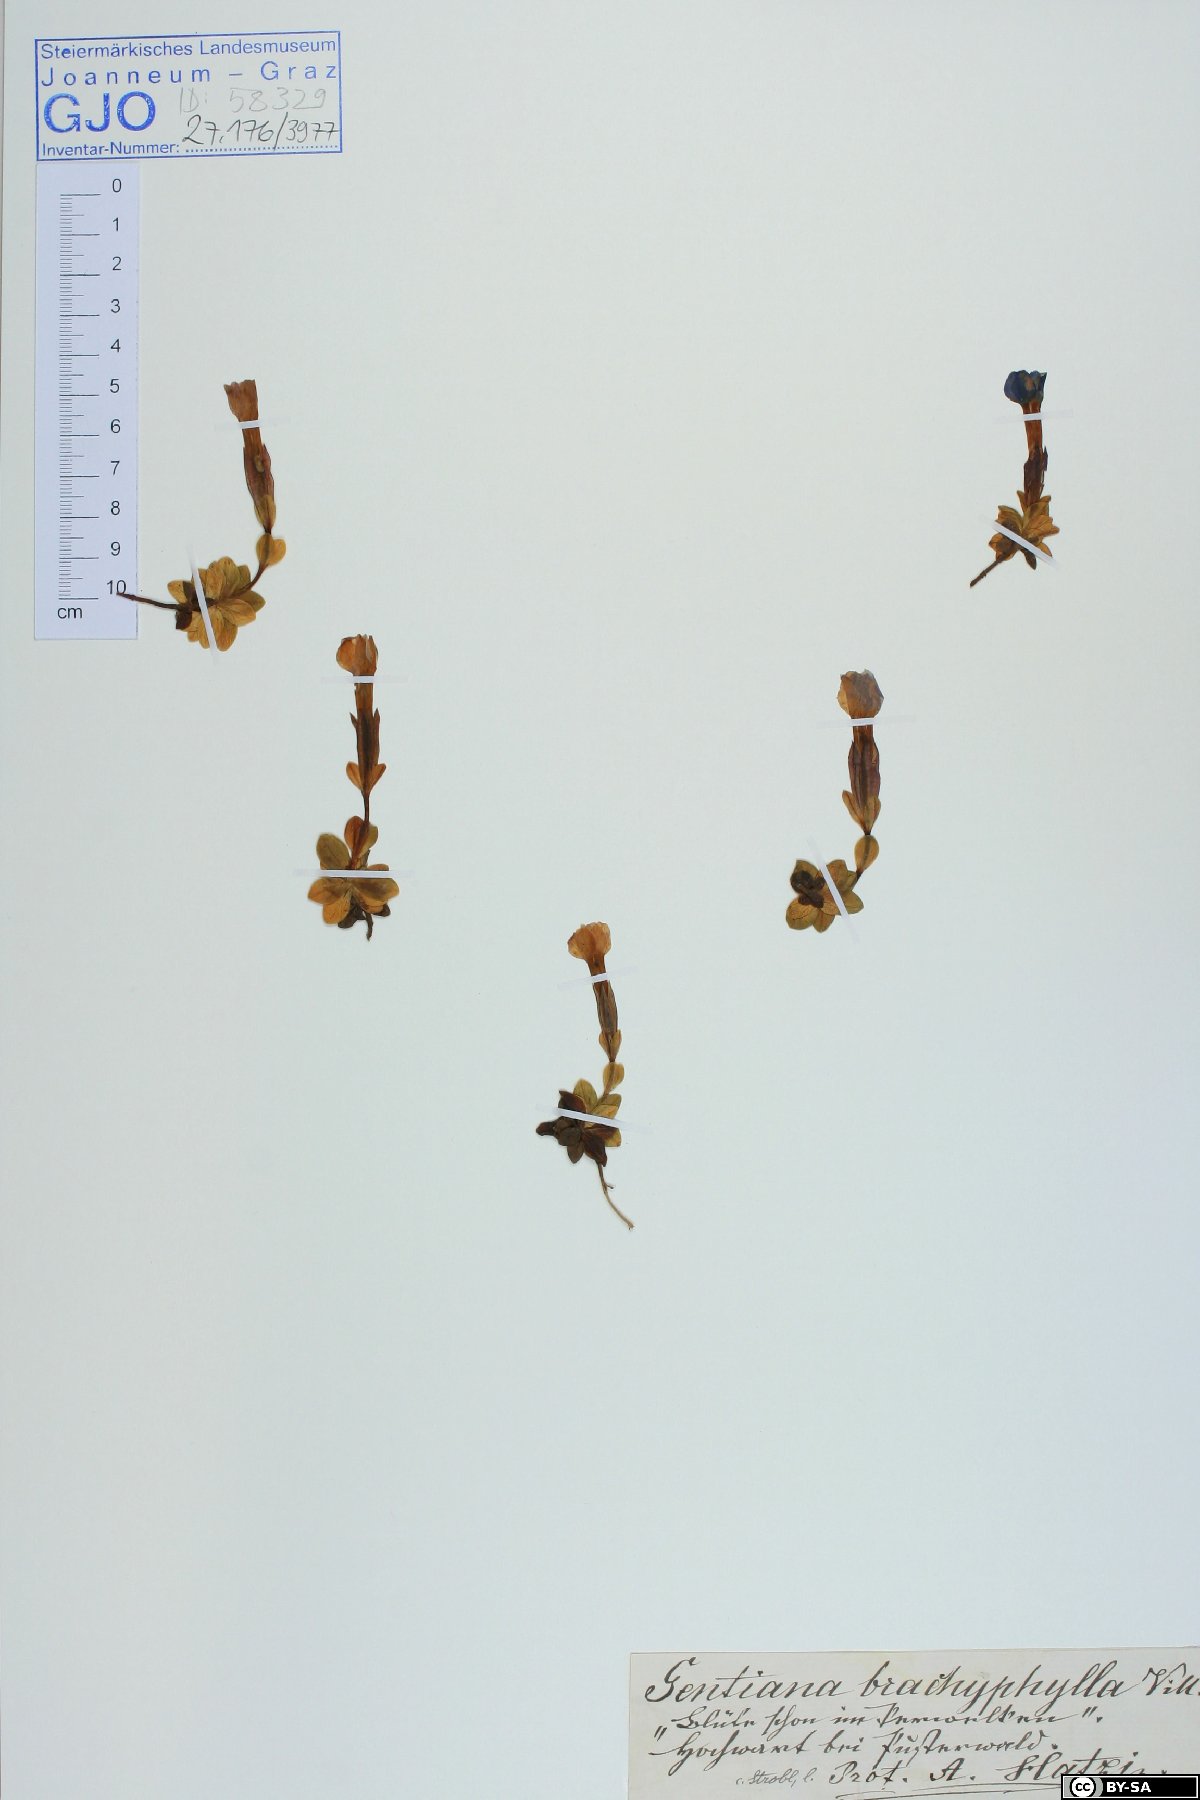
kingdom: Plantae
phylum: Tracheophyta
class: Magnoliopsida
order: Gentianales
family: Gentianaceae
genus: Gentiana
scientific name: Gentiana brachyphylla
